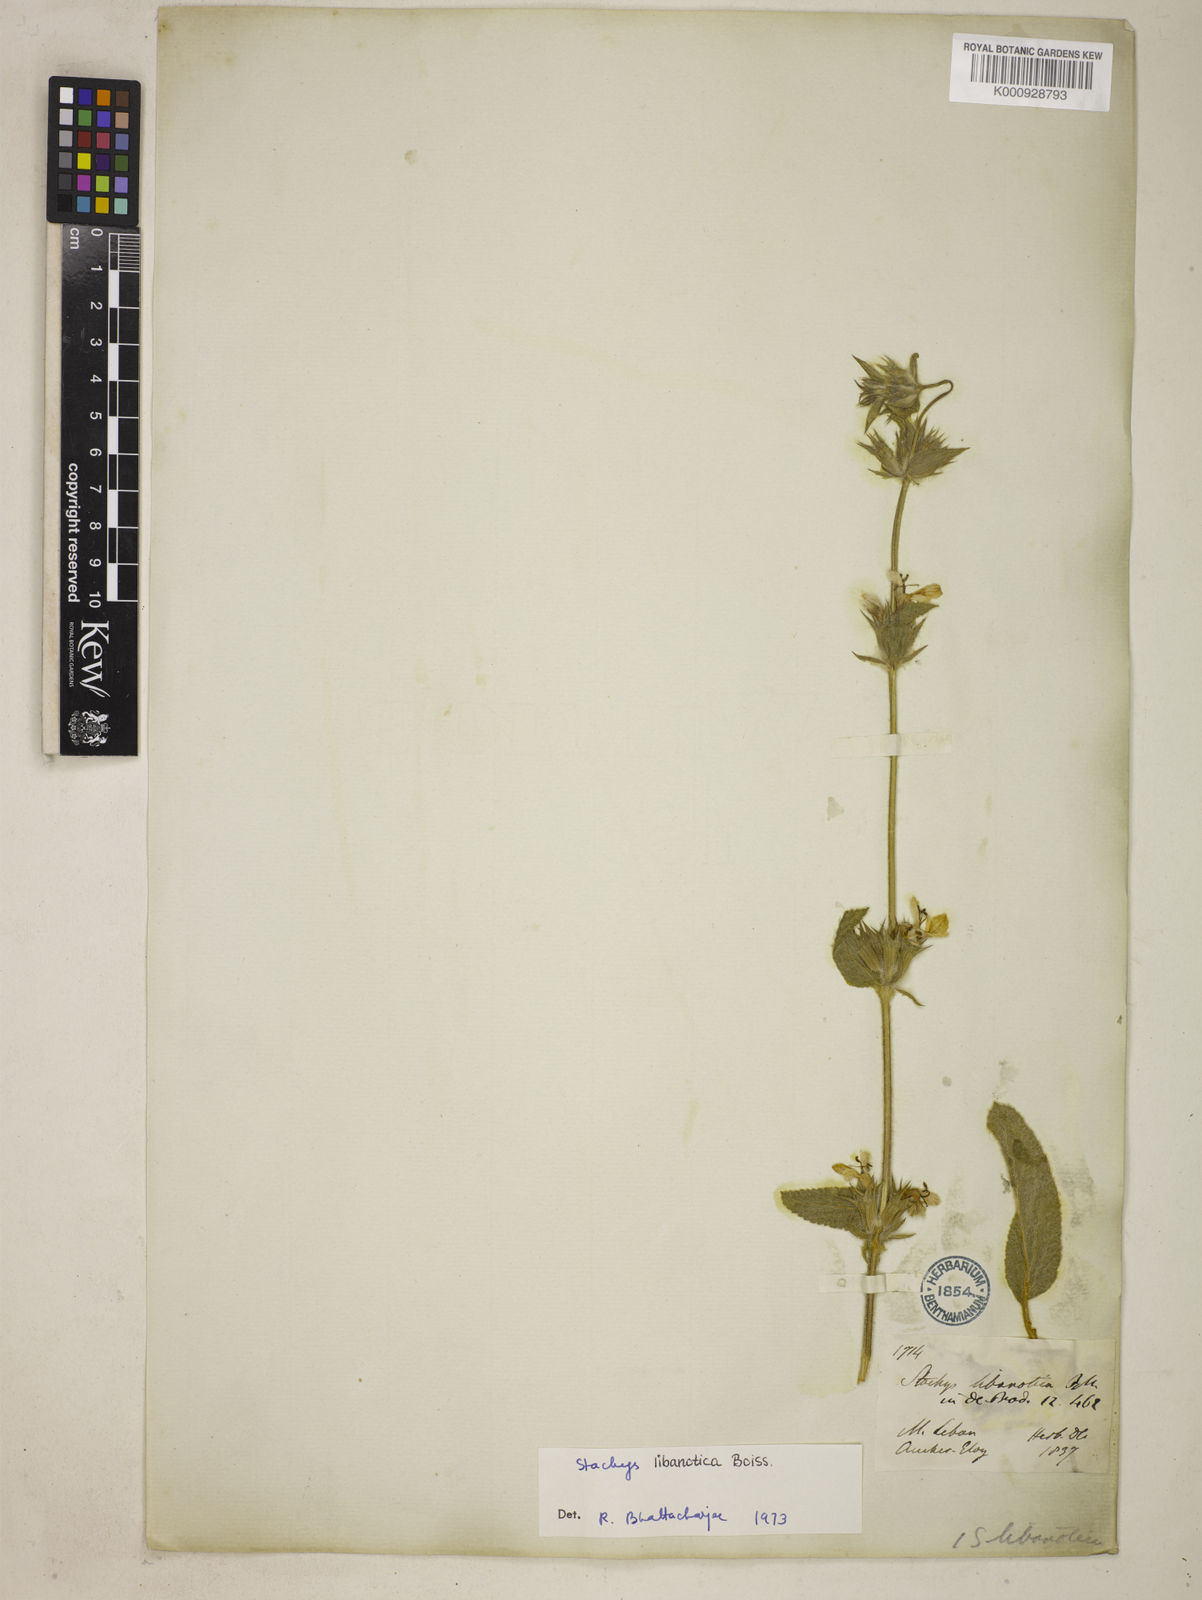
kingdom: Plantae
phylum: Tracheophyta
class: Magnoliopsida
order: Lamiales
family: Lamiaceae
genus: Stachys
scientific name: Stachys libanotica
